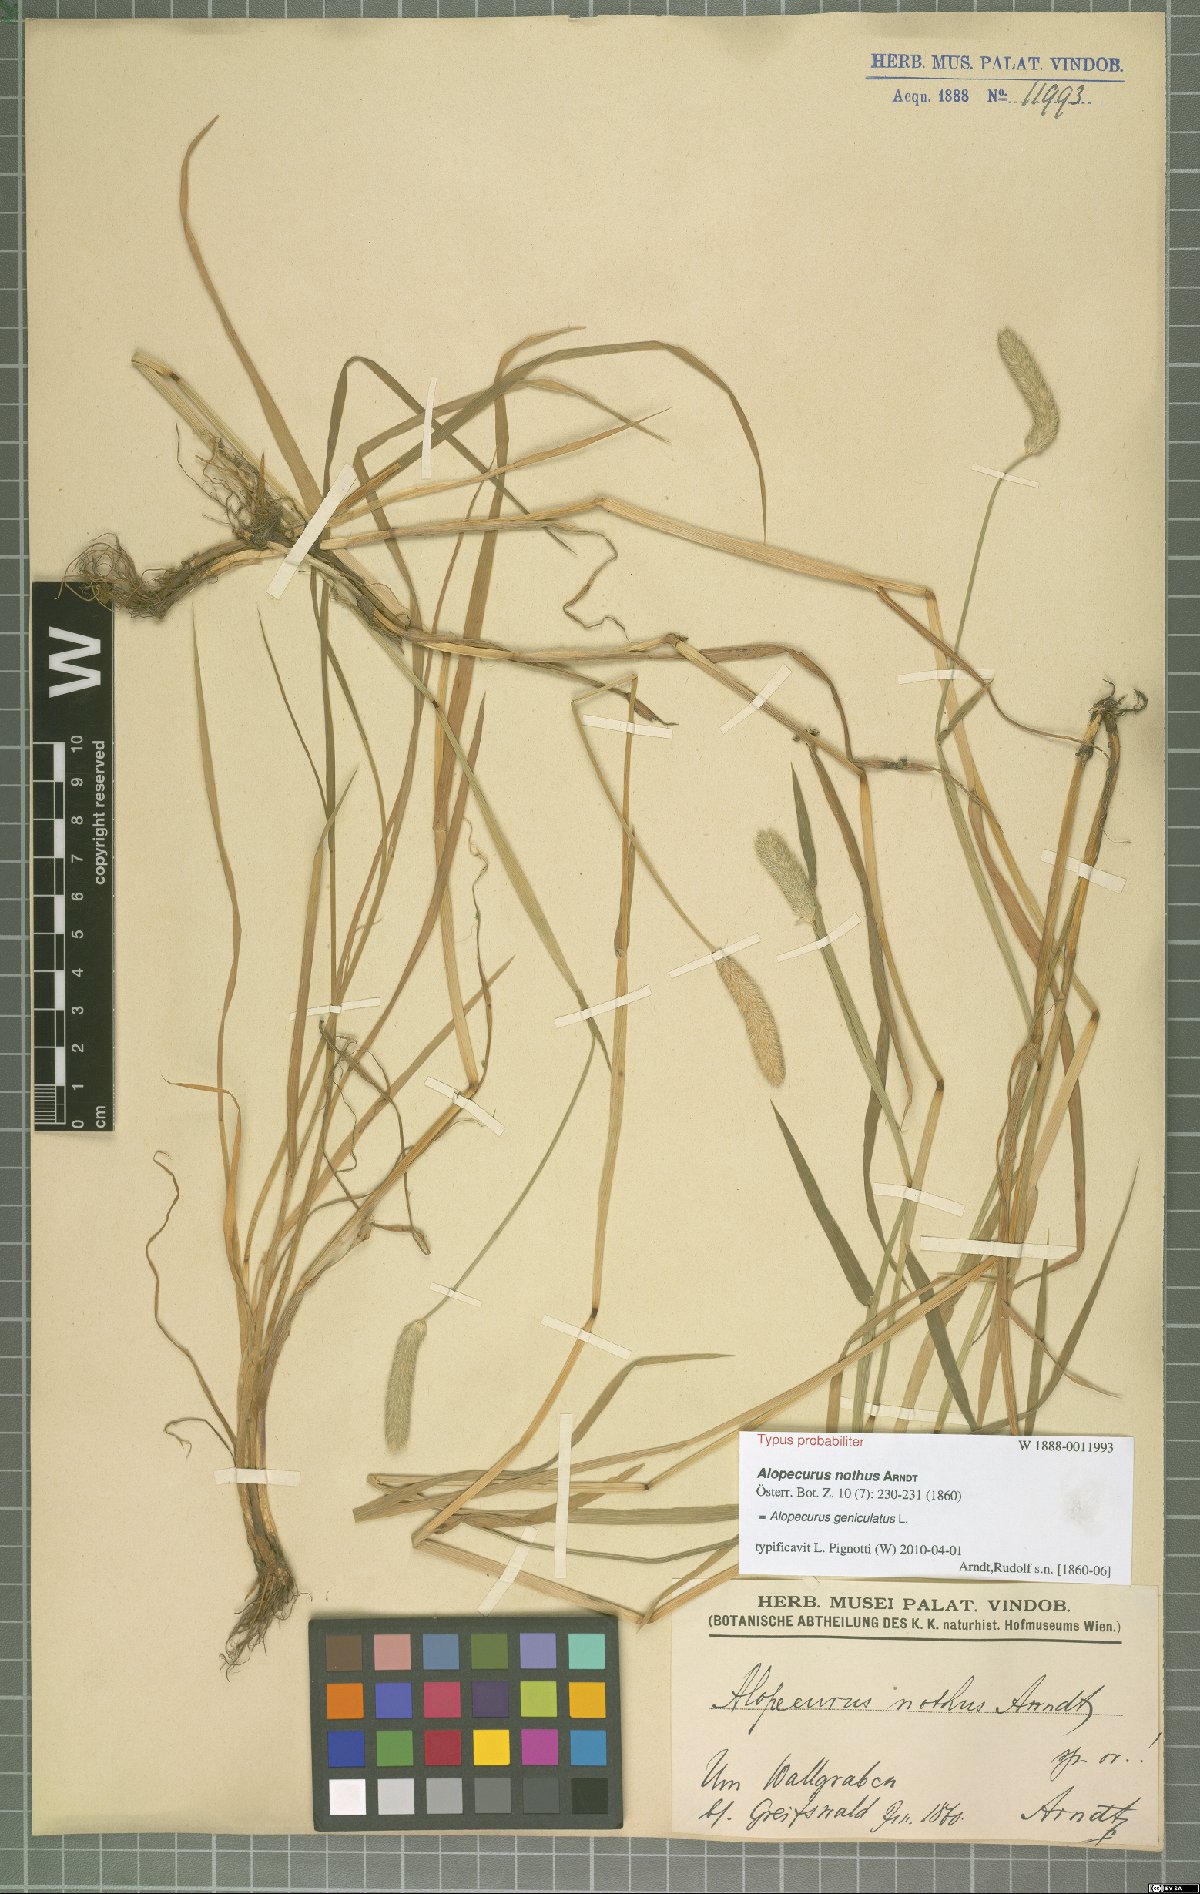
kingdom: Plantae
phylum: Tracheophyta
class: Liliopsida
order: Poales
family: Poaceae
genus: Alopecurus
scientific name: Alopecurus geniculatus
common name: Water foxtail
